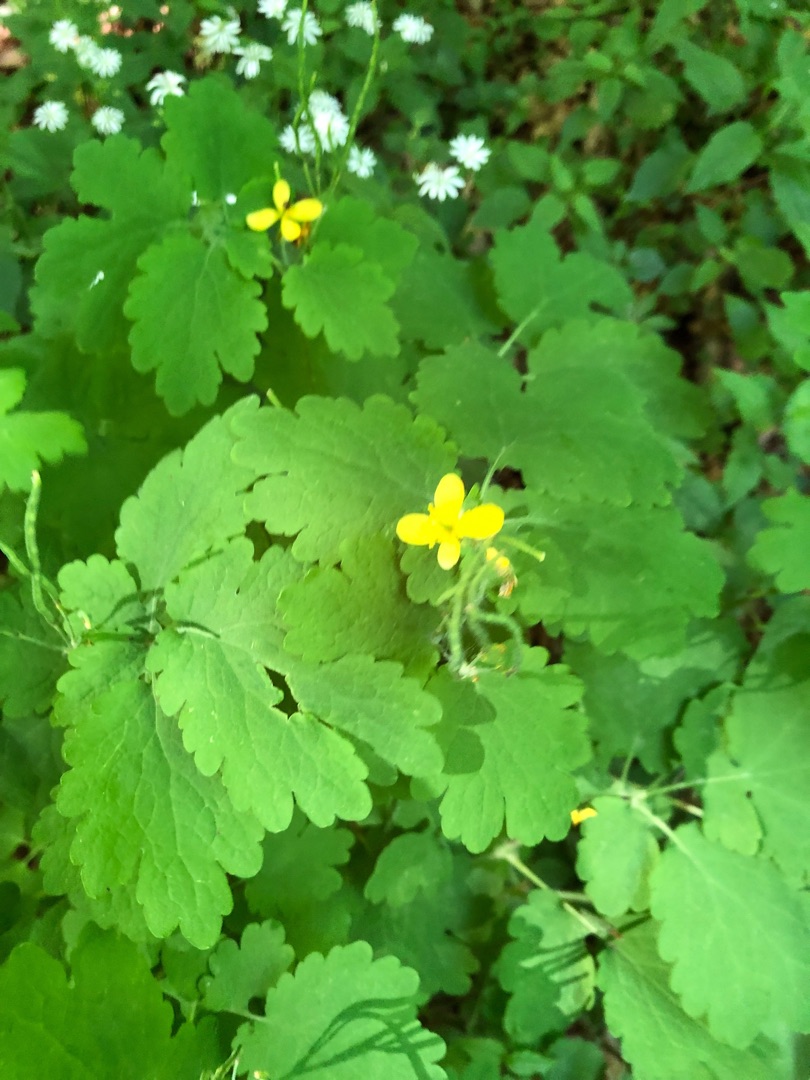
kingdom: Plantae
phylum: Tracheophyta
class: Magnoliopsida
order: Ranunculales
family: Papaveraceae
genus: Chelidonium
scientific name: Chelidonium majus
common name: Svaleurt
